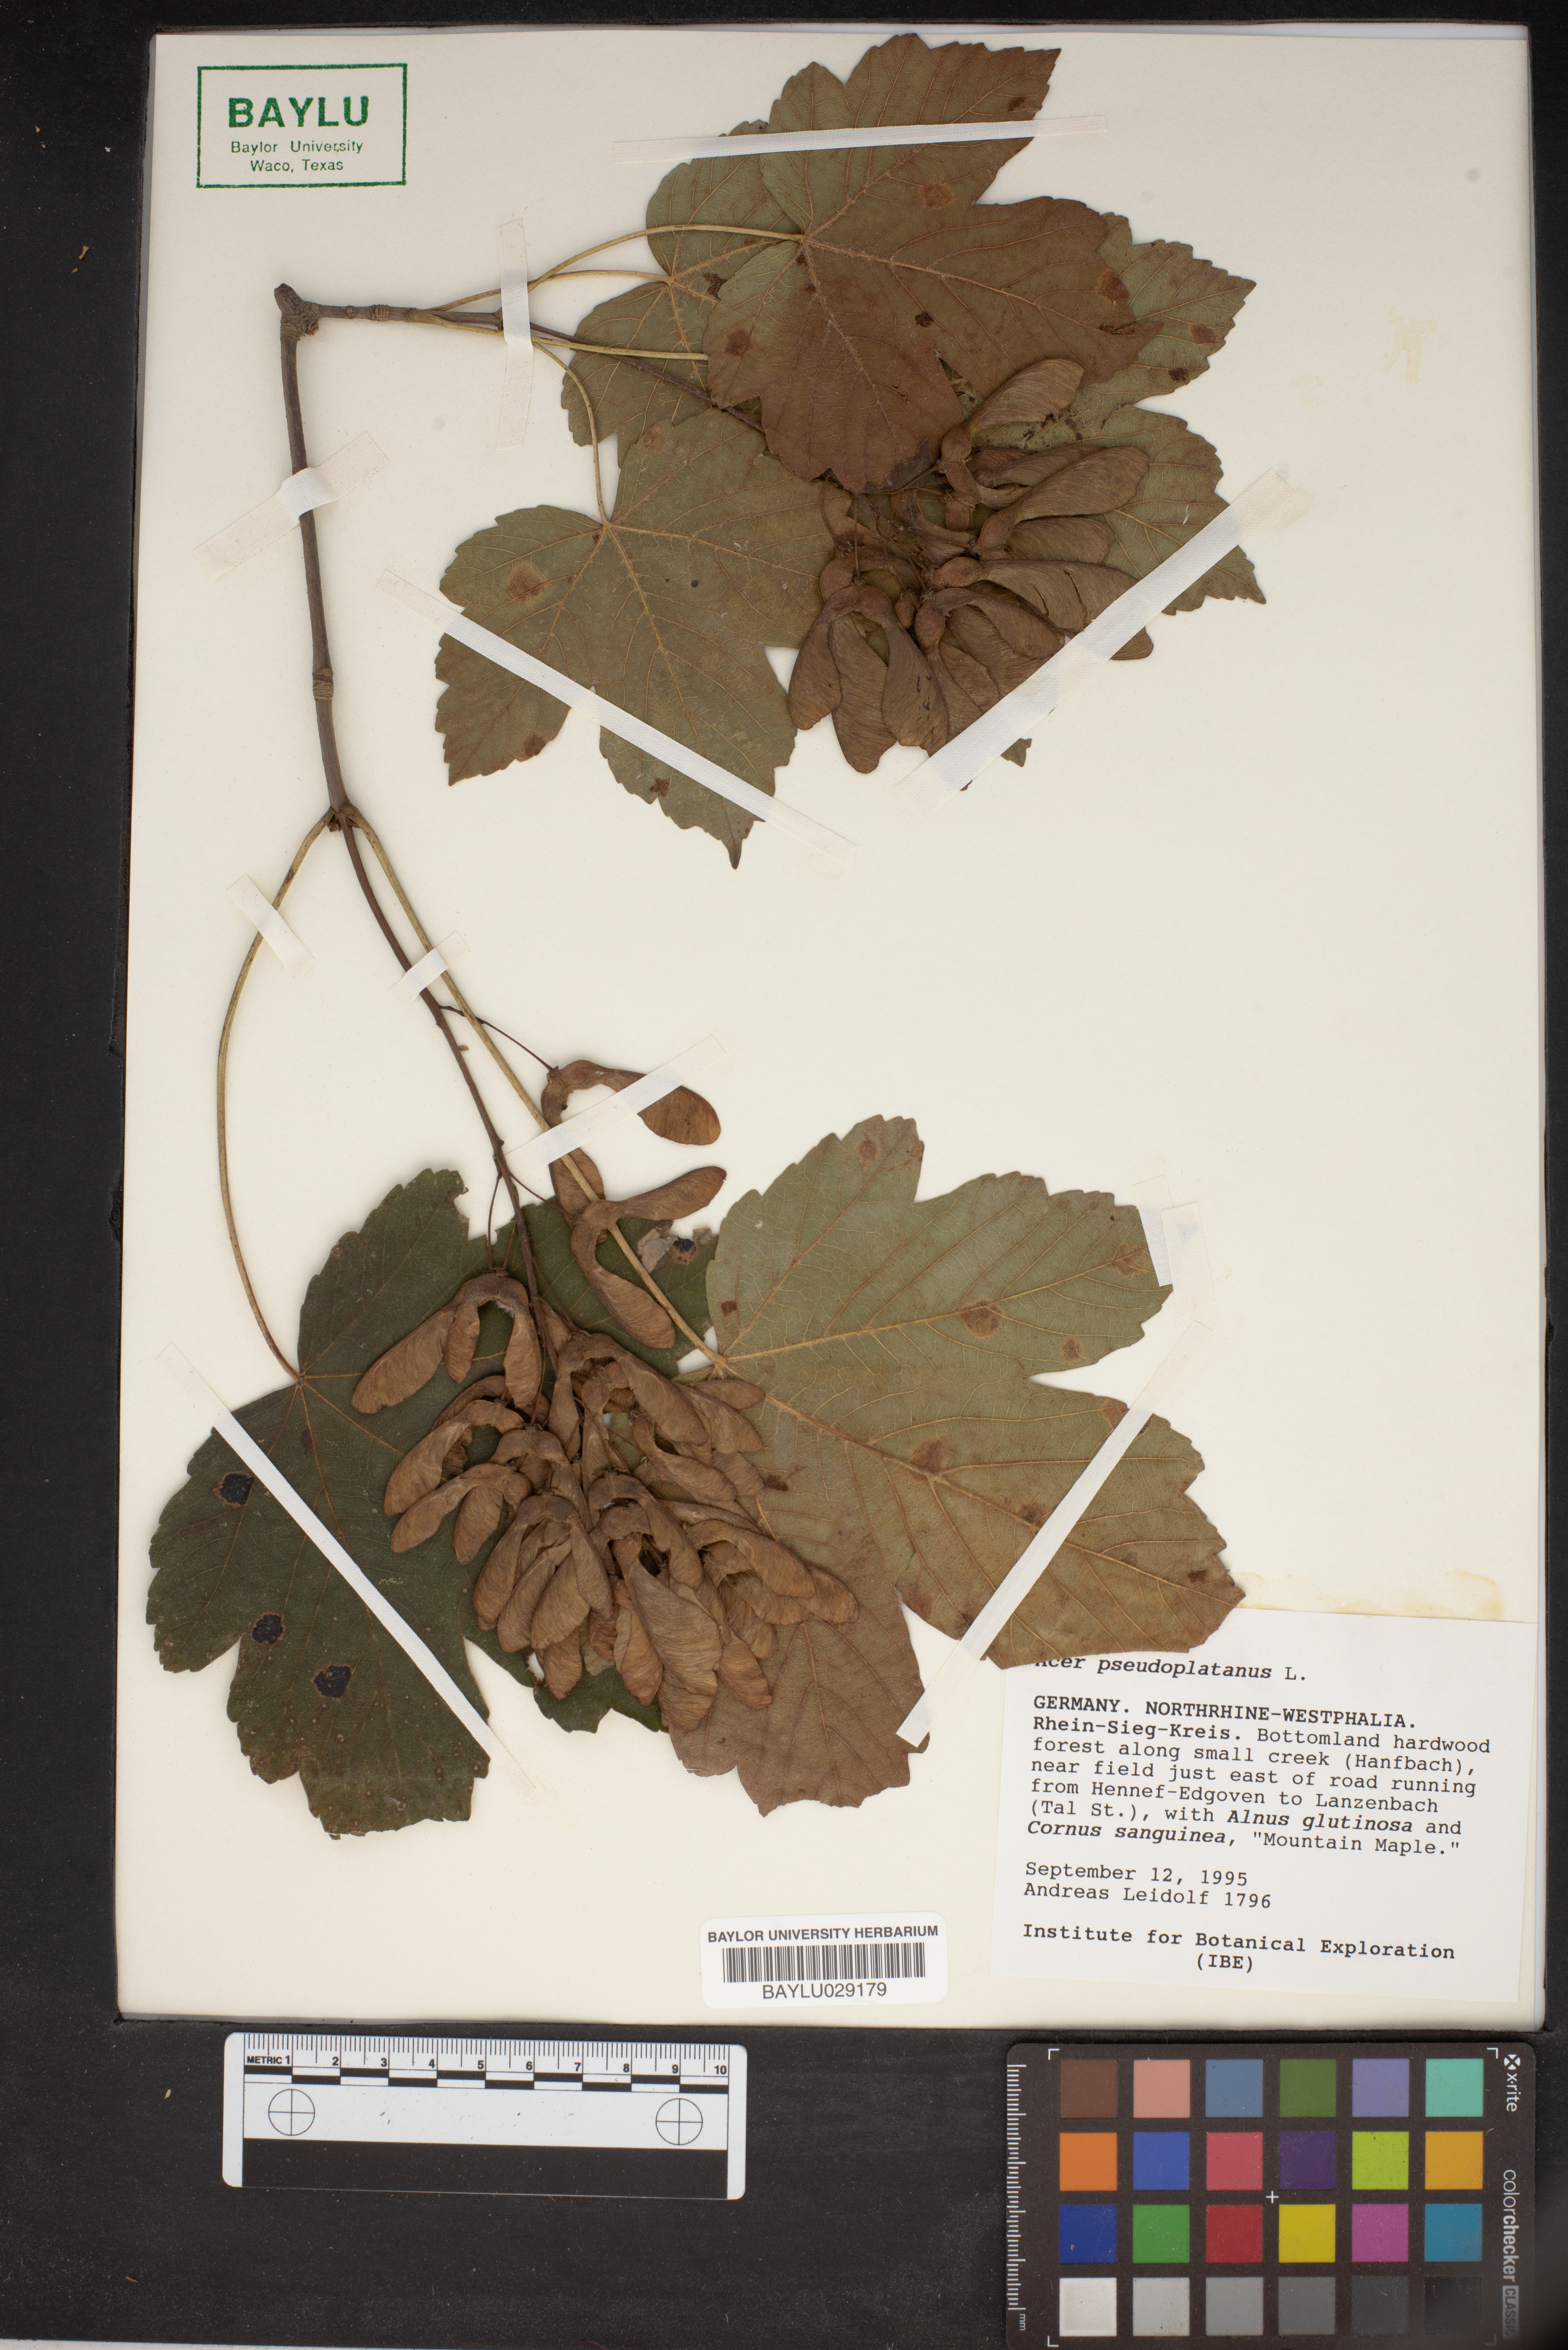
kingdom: Plantae
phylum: Tracheophyta
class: Magnoliopsida
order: Sapindales
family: Sapindaceae
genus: Acer
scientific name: Acer pseudoplatanus
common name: Sycamore
